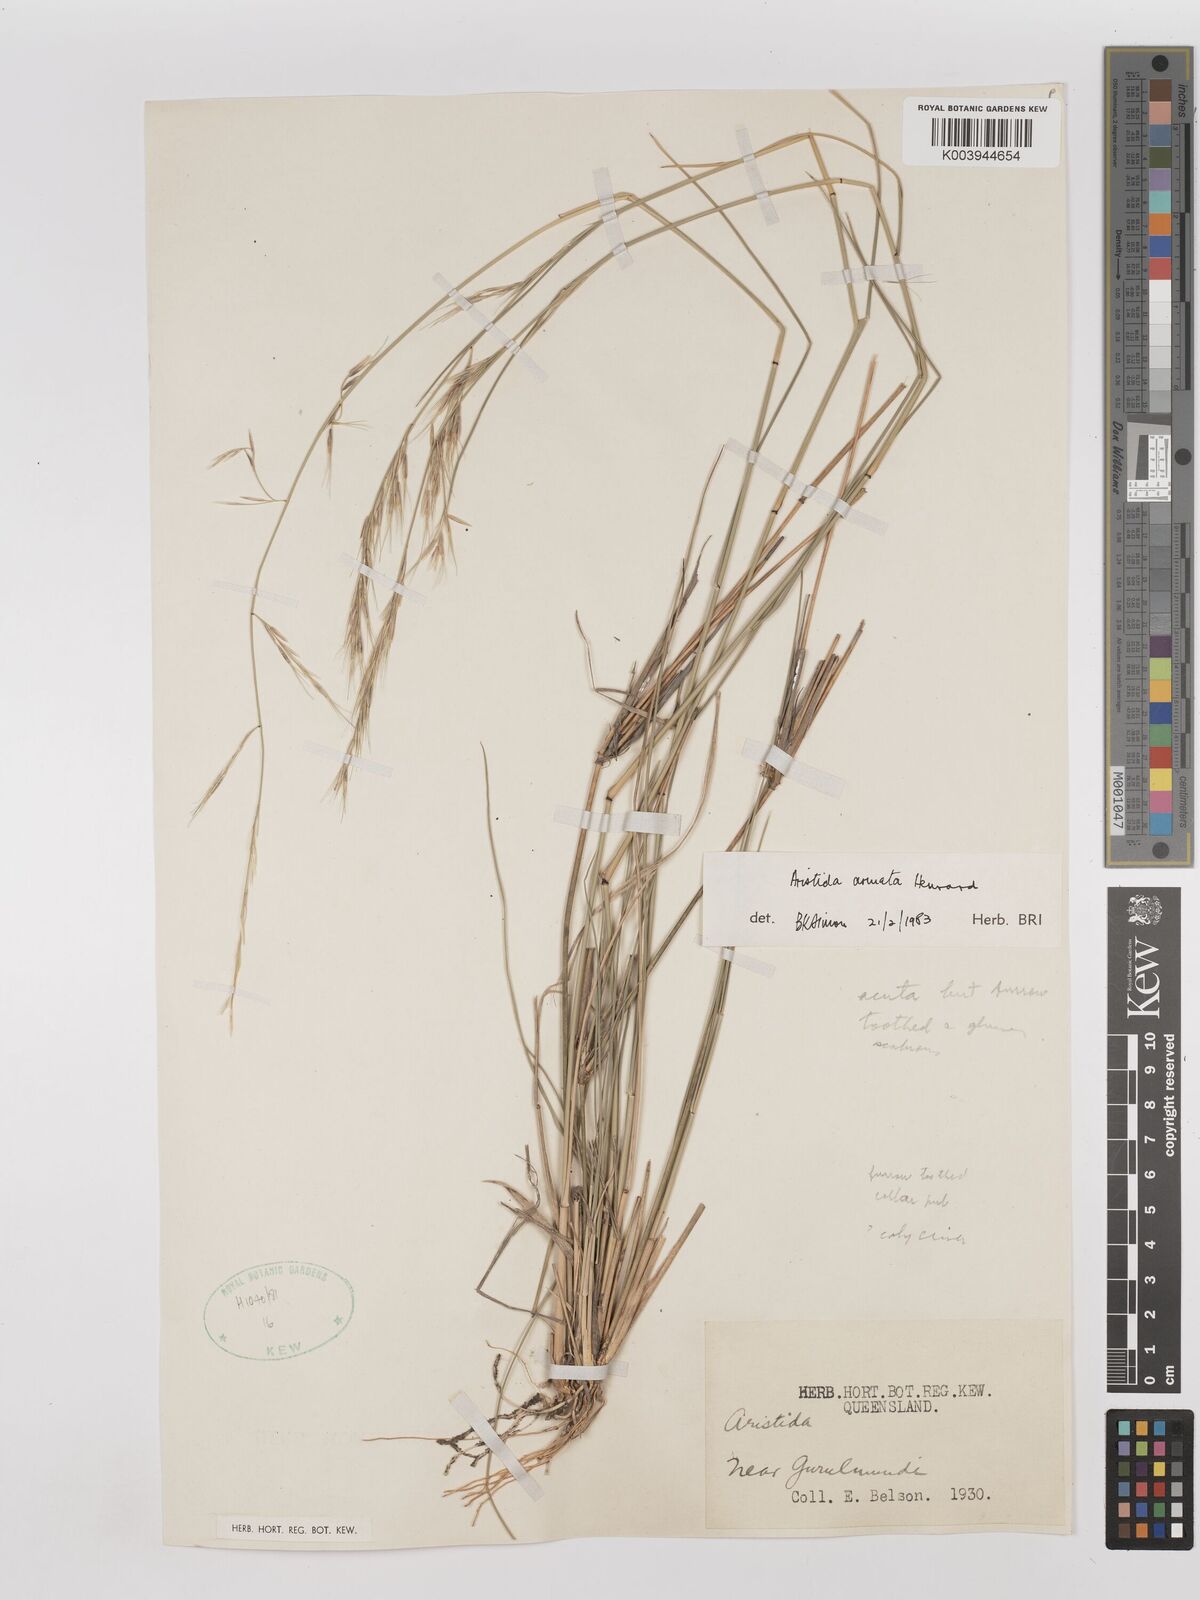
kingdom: Plantae
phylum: Tracheophyta
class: Liliopsida
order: Poales
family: Poaceae
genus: Aristida
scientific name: Aristida calycina
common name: Dark wire grass
